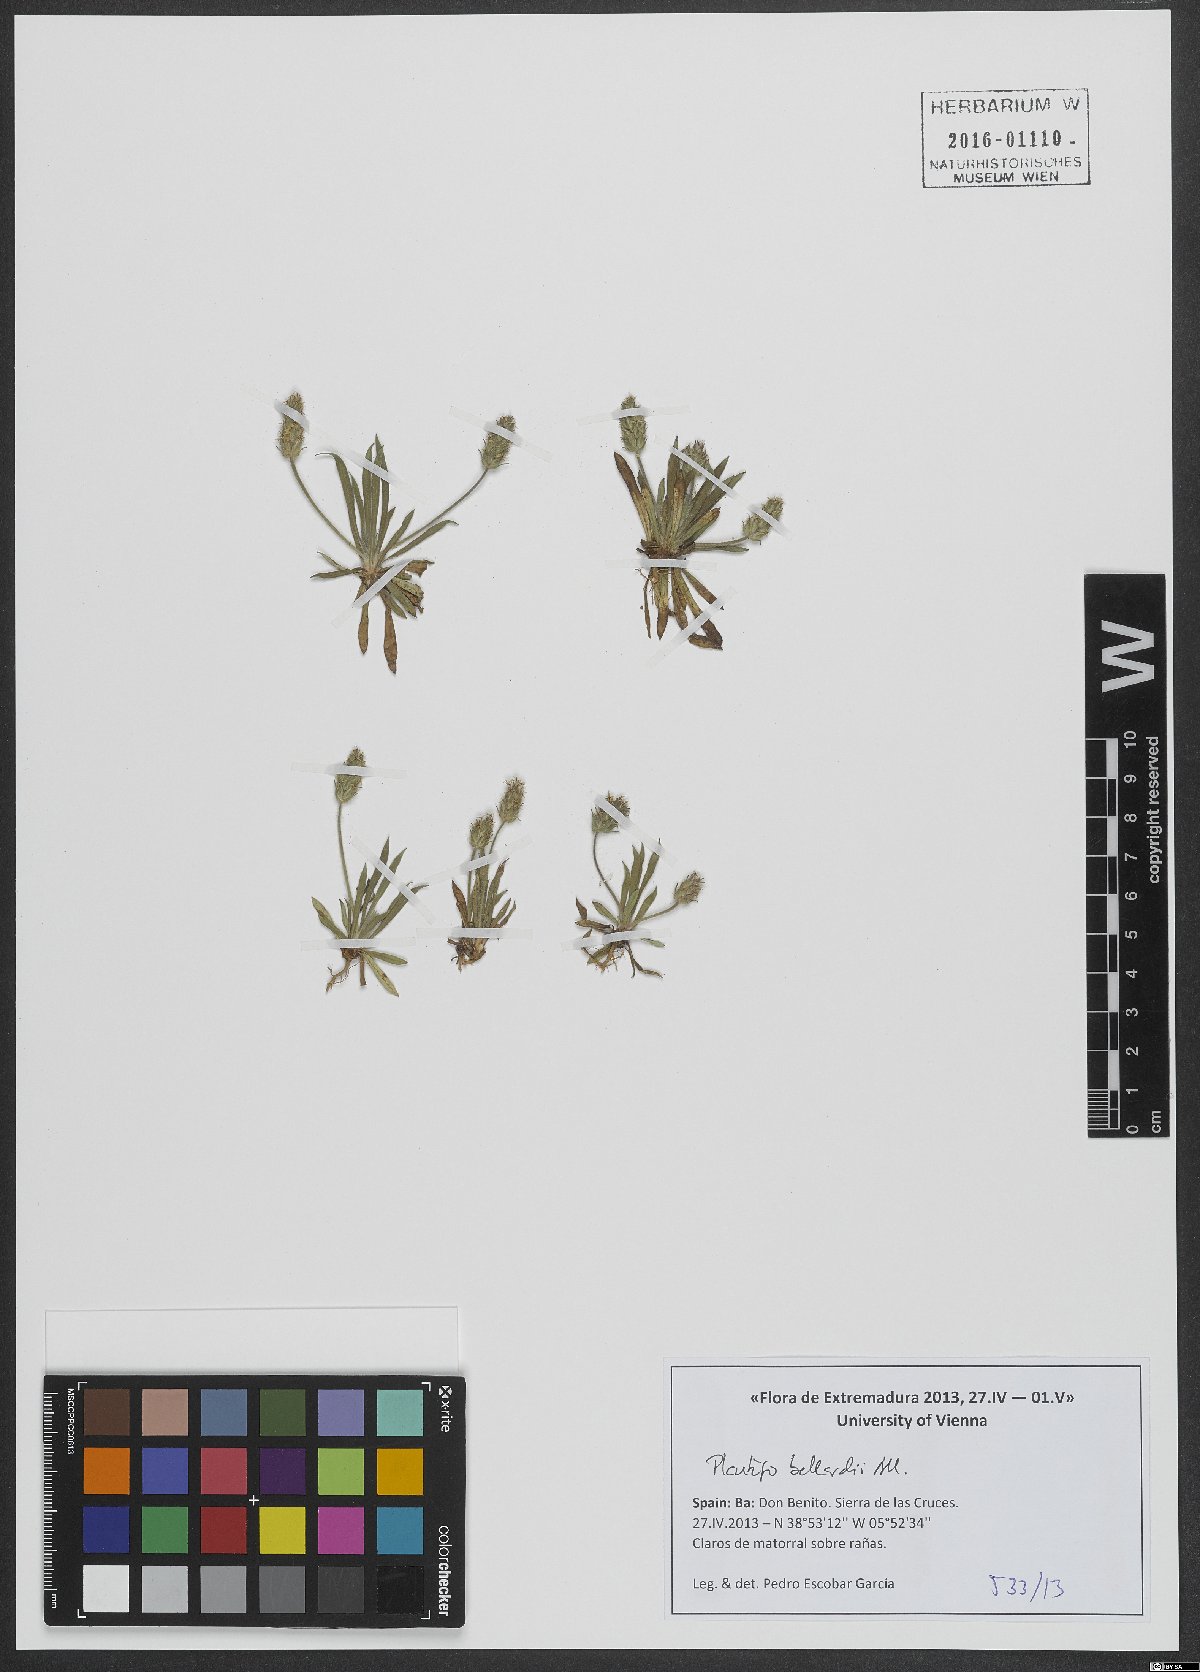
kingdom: Plantae
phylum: Tracheophyta
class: Magnoliopsida
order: Lamiales
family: Plantaginaceae
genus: Plantago
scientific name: Plantago bellardii
